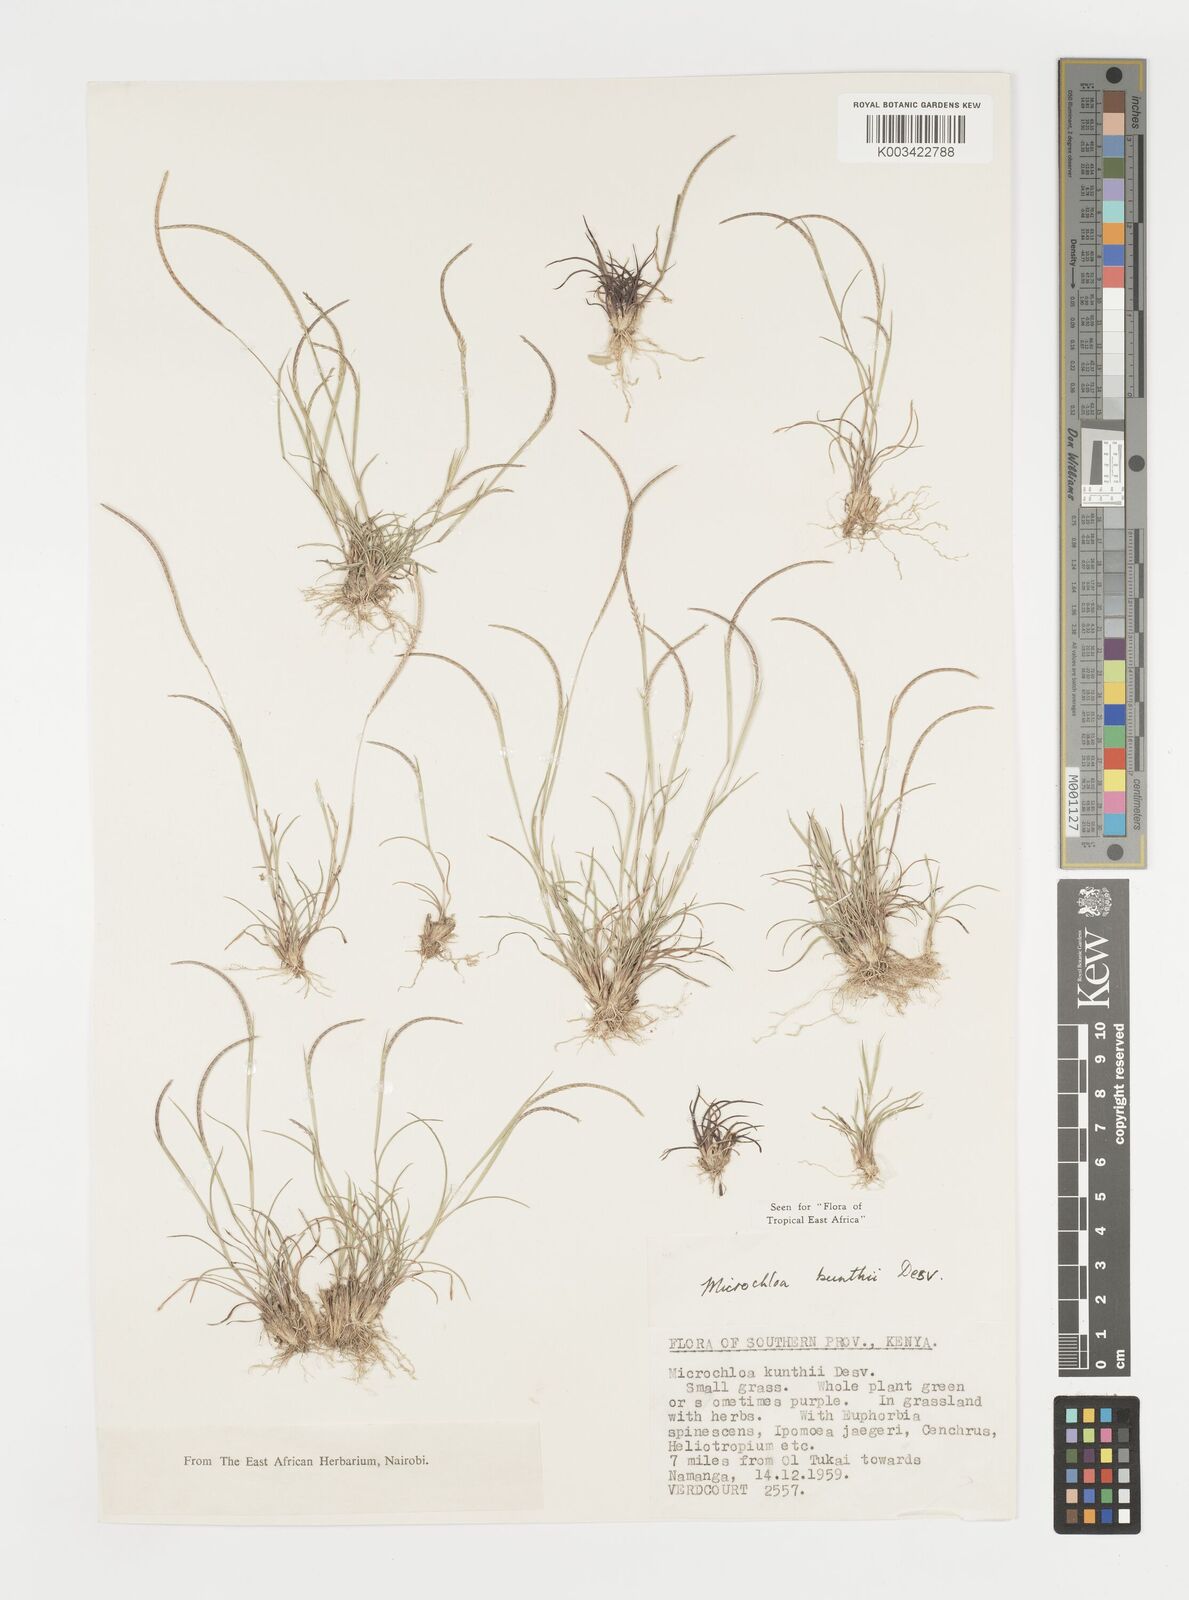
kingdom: Plantae
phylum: Tracheophyta
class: Liliopsida
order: Poales
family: Poaceae
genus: Microchloa
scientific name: Microchloa kunthii
